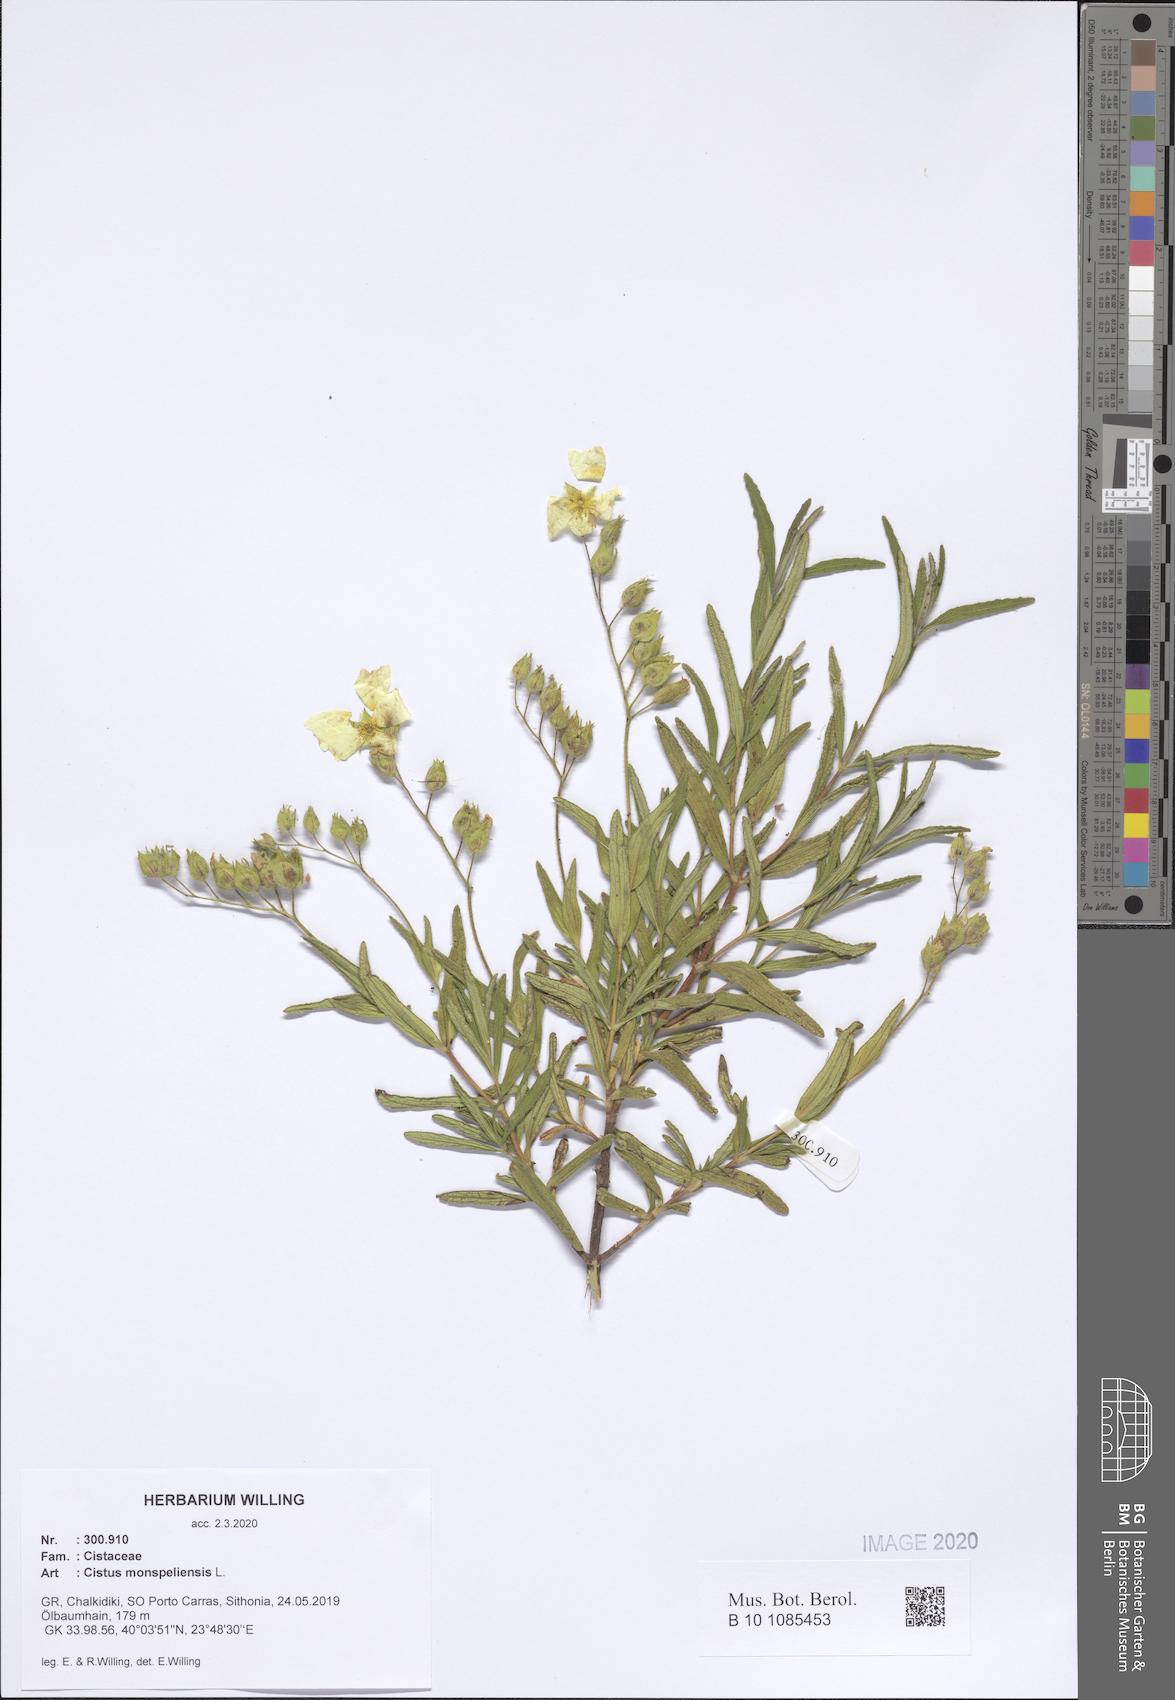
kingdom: Plantae
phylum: Tracheophyta
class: Magnoliopsida
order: Malvales
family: Cistaceae
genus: Cistus
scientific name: Cistus monspeliensis
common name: Montpelier cistus
